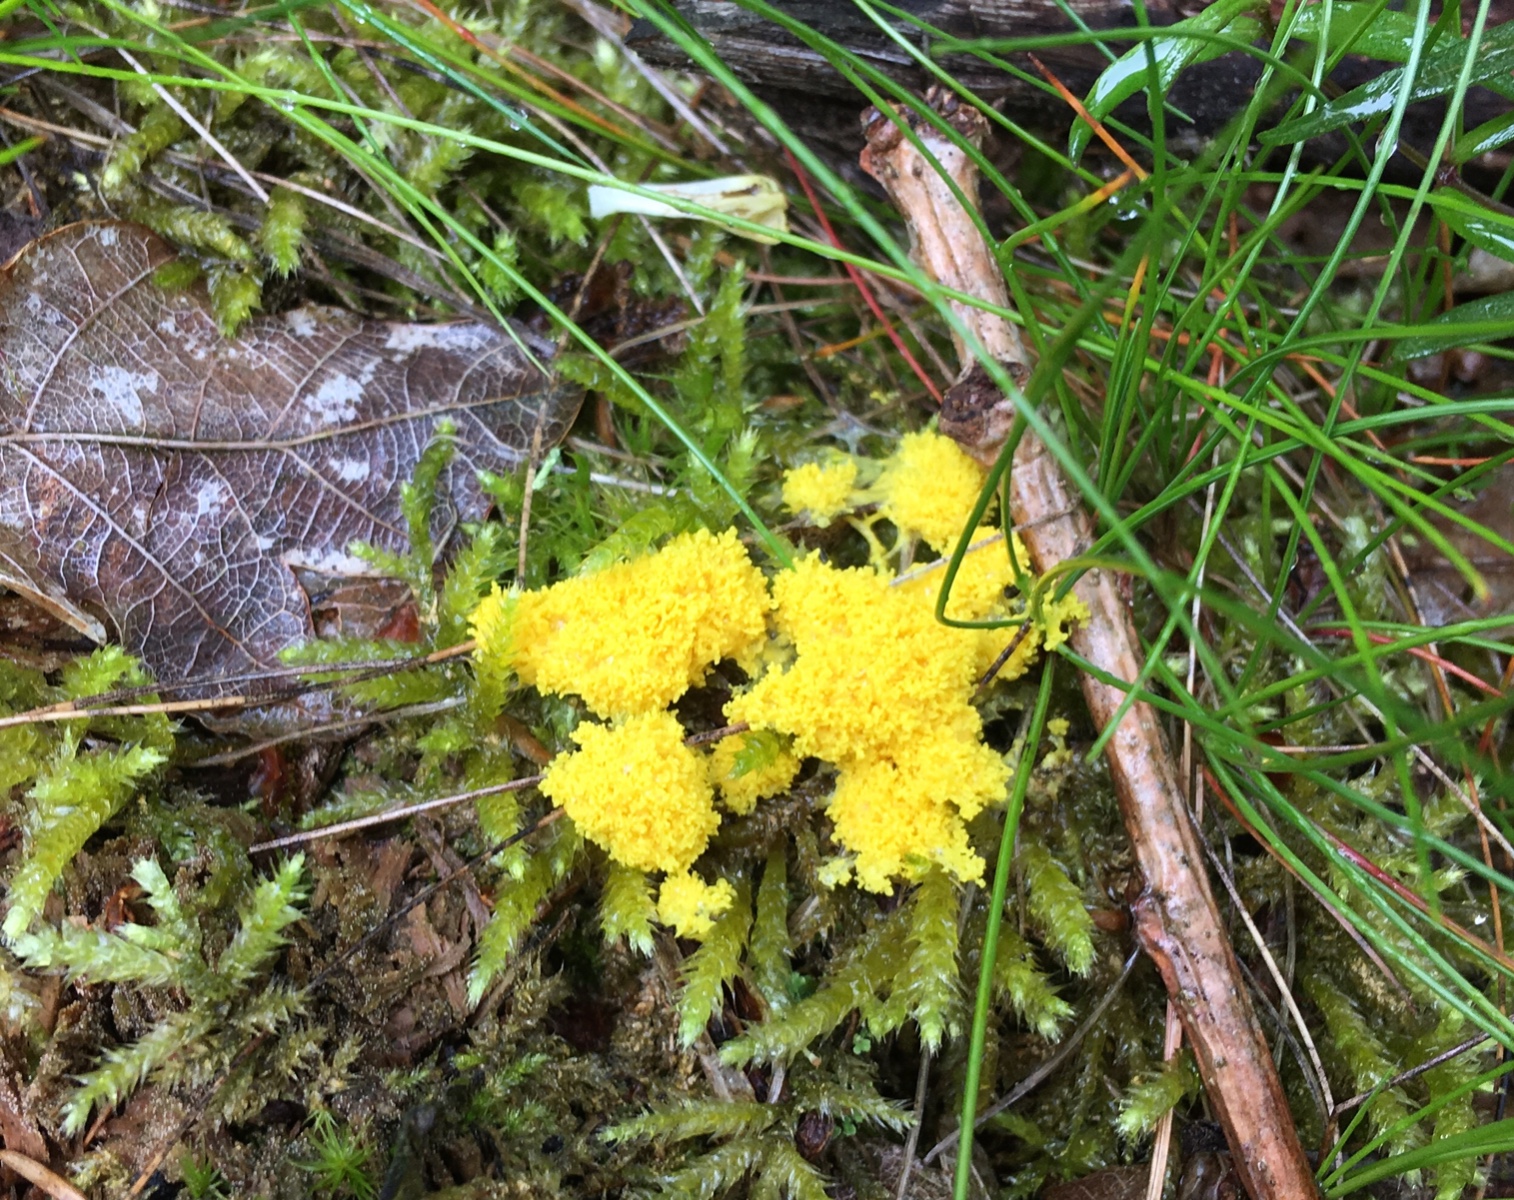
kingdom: Protozoa
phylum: Mycetozoa
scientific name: Mycetozoa
